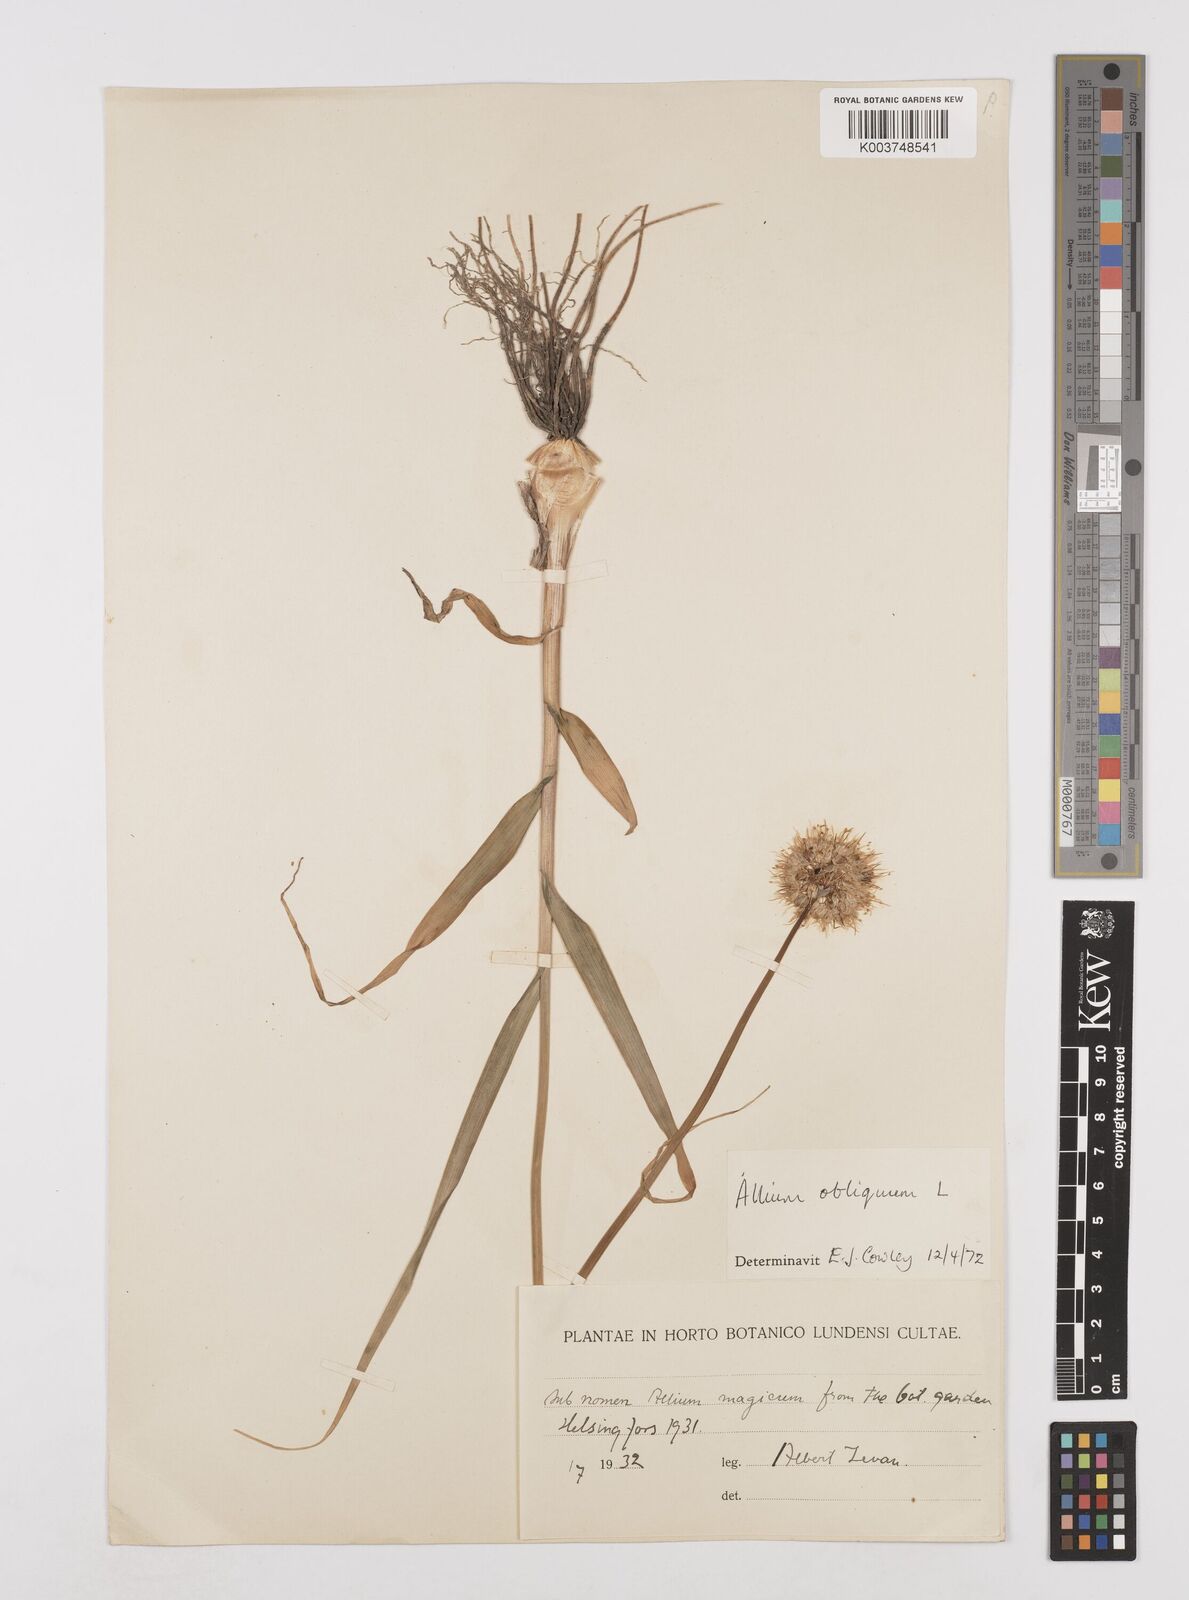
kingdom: Plantae
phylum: Tracheophyta
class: Liliopsida
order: Asparagales
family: Amaryllidaceae
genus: Allium
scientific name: Allium obliquum
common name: Oblique onion
